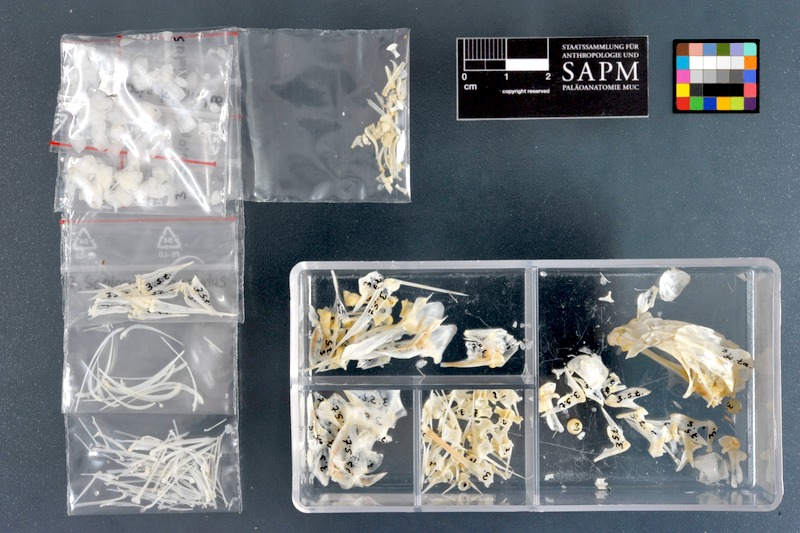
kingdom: Animalia
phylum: Chordata
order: Perciformes
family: Nemipteridae
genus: Scolopsis
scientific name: Scolopsis taeniata
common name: Blackstreaked monocle bream
